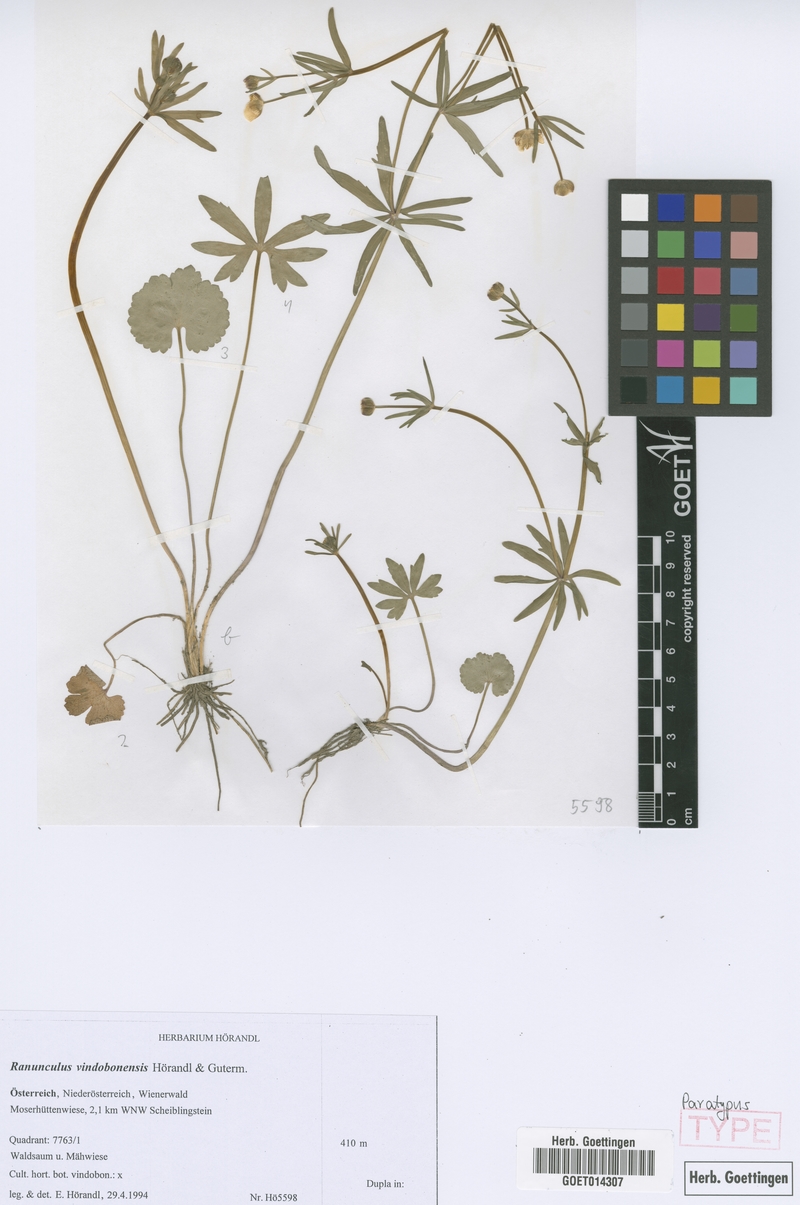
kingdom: Plantae
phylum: Tracheophyta
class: Magnoliopsida
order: Ranunculales
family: Ranunculaceae
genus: Ranunculus
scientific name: Ranunculus vindobonensis
